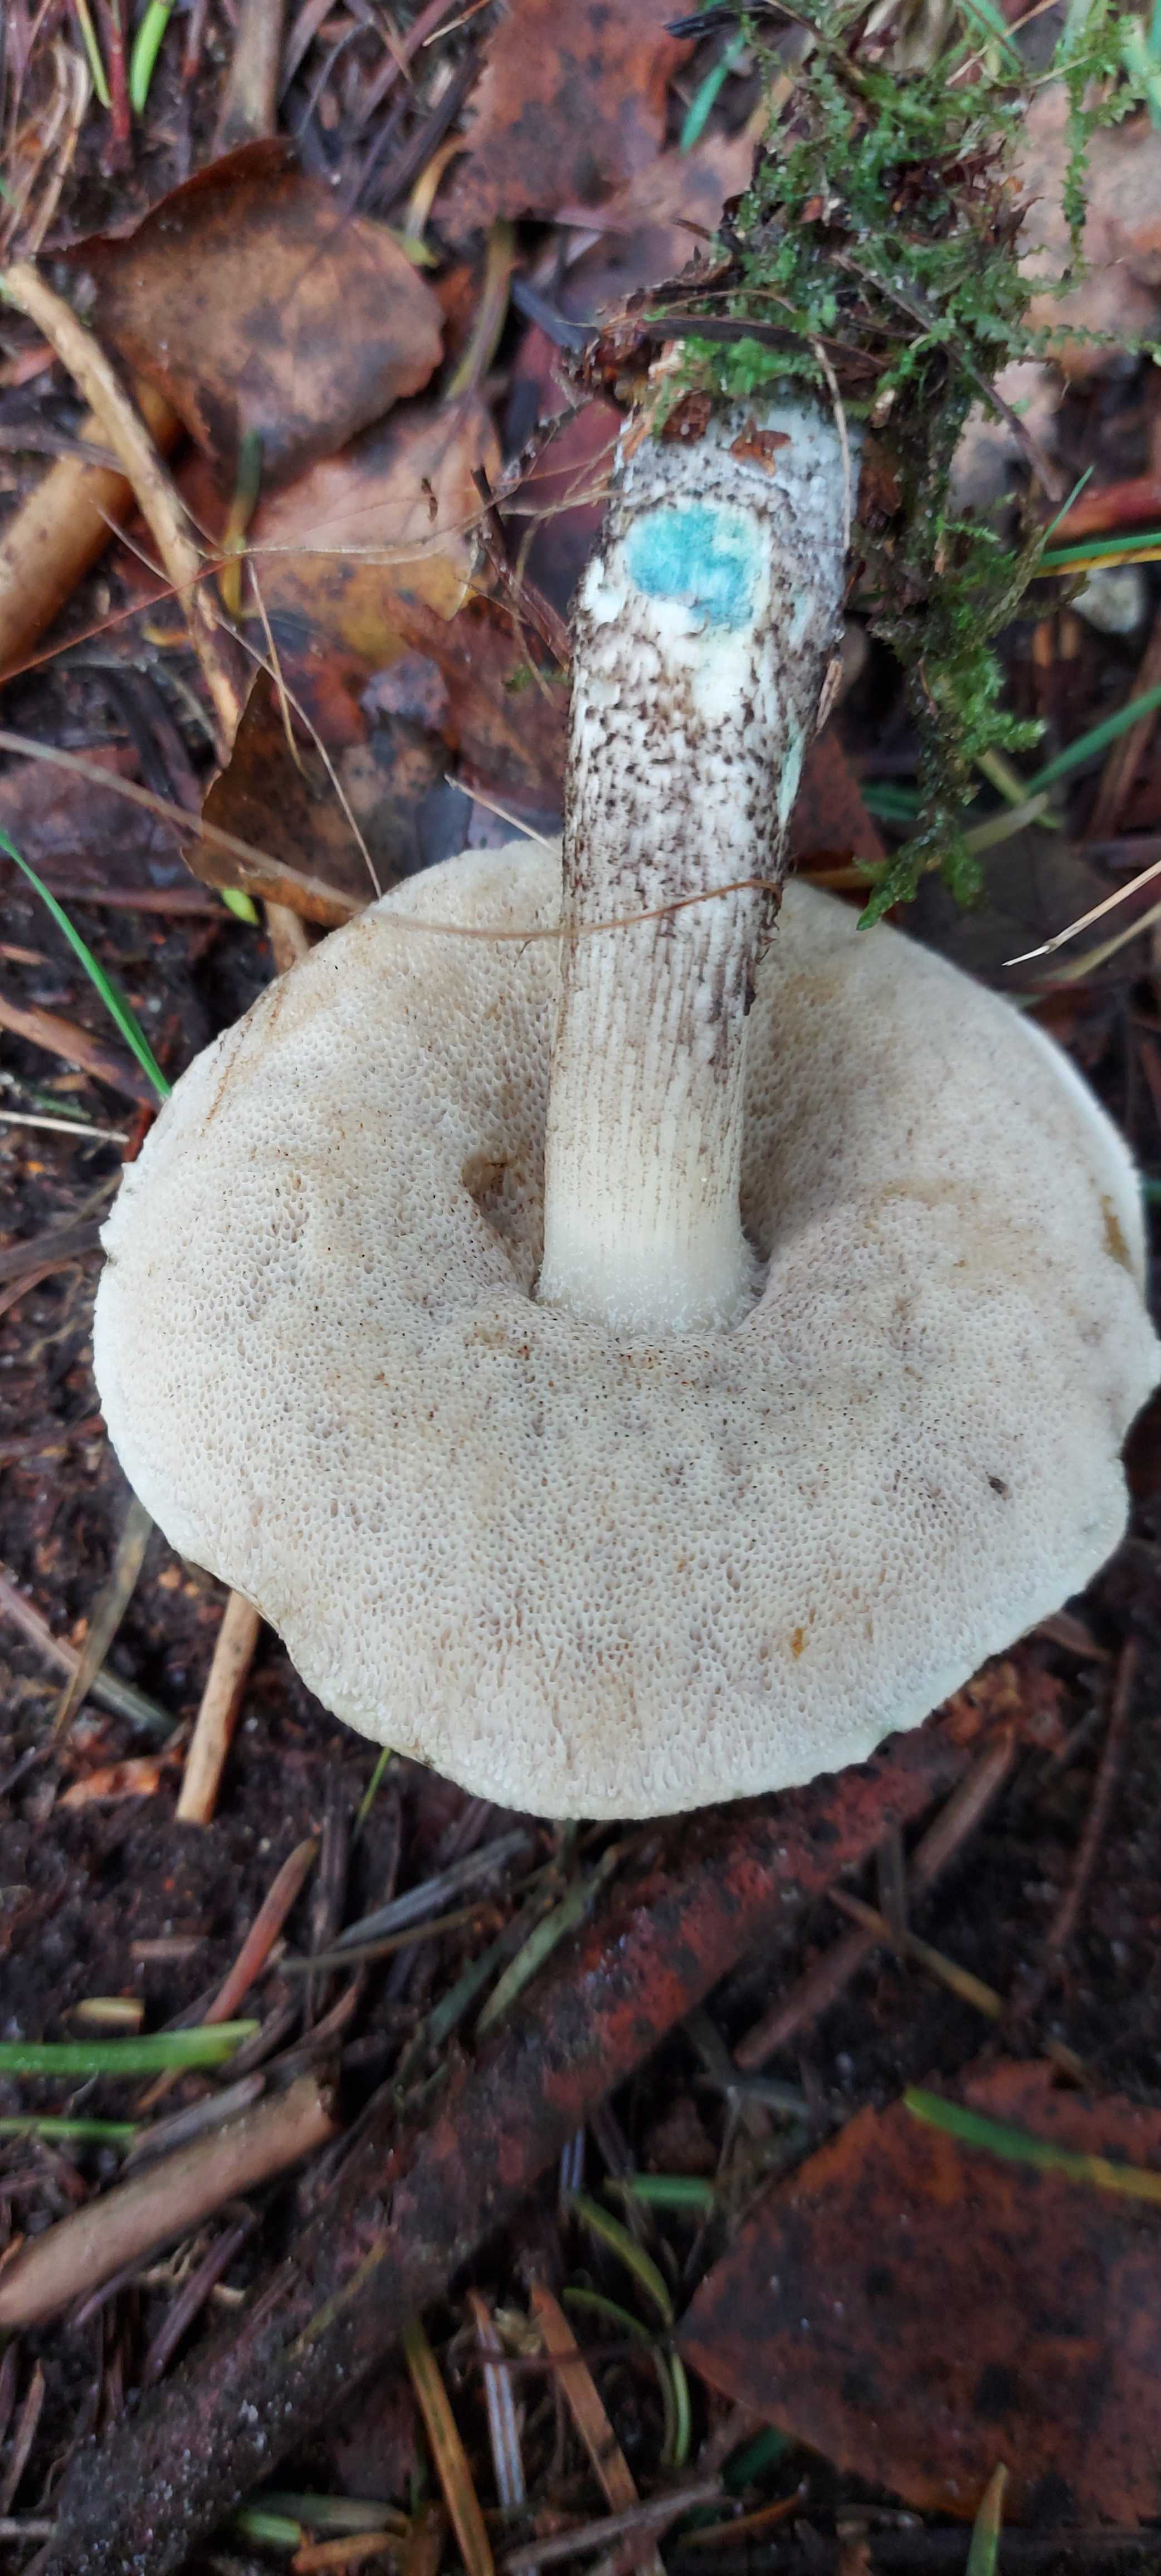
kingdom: Fungi
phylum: Basidiomycota
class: Agaricomycetes
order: Boletales
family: Boletaceae
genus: Leccinum
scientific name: Leccinum variicolor
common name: flammet skælrørhat
